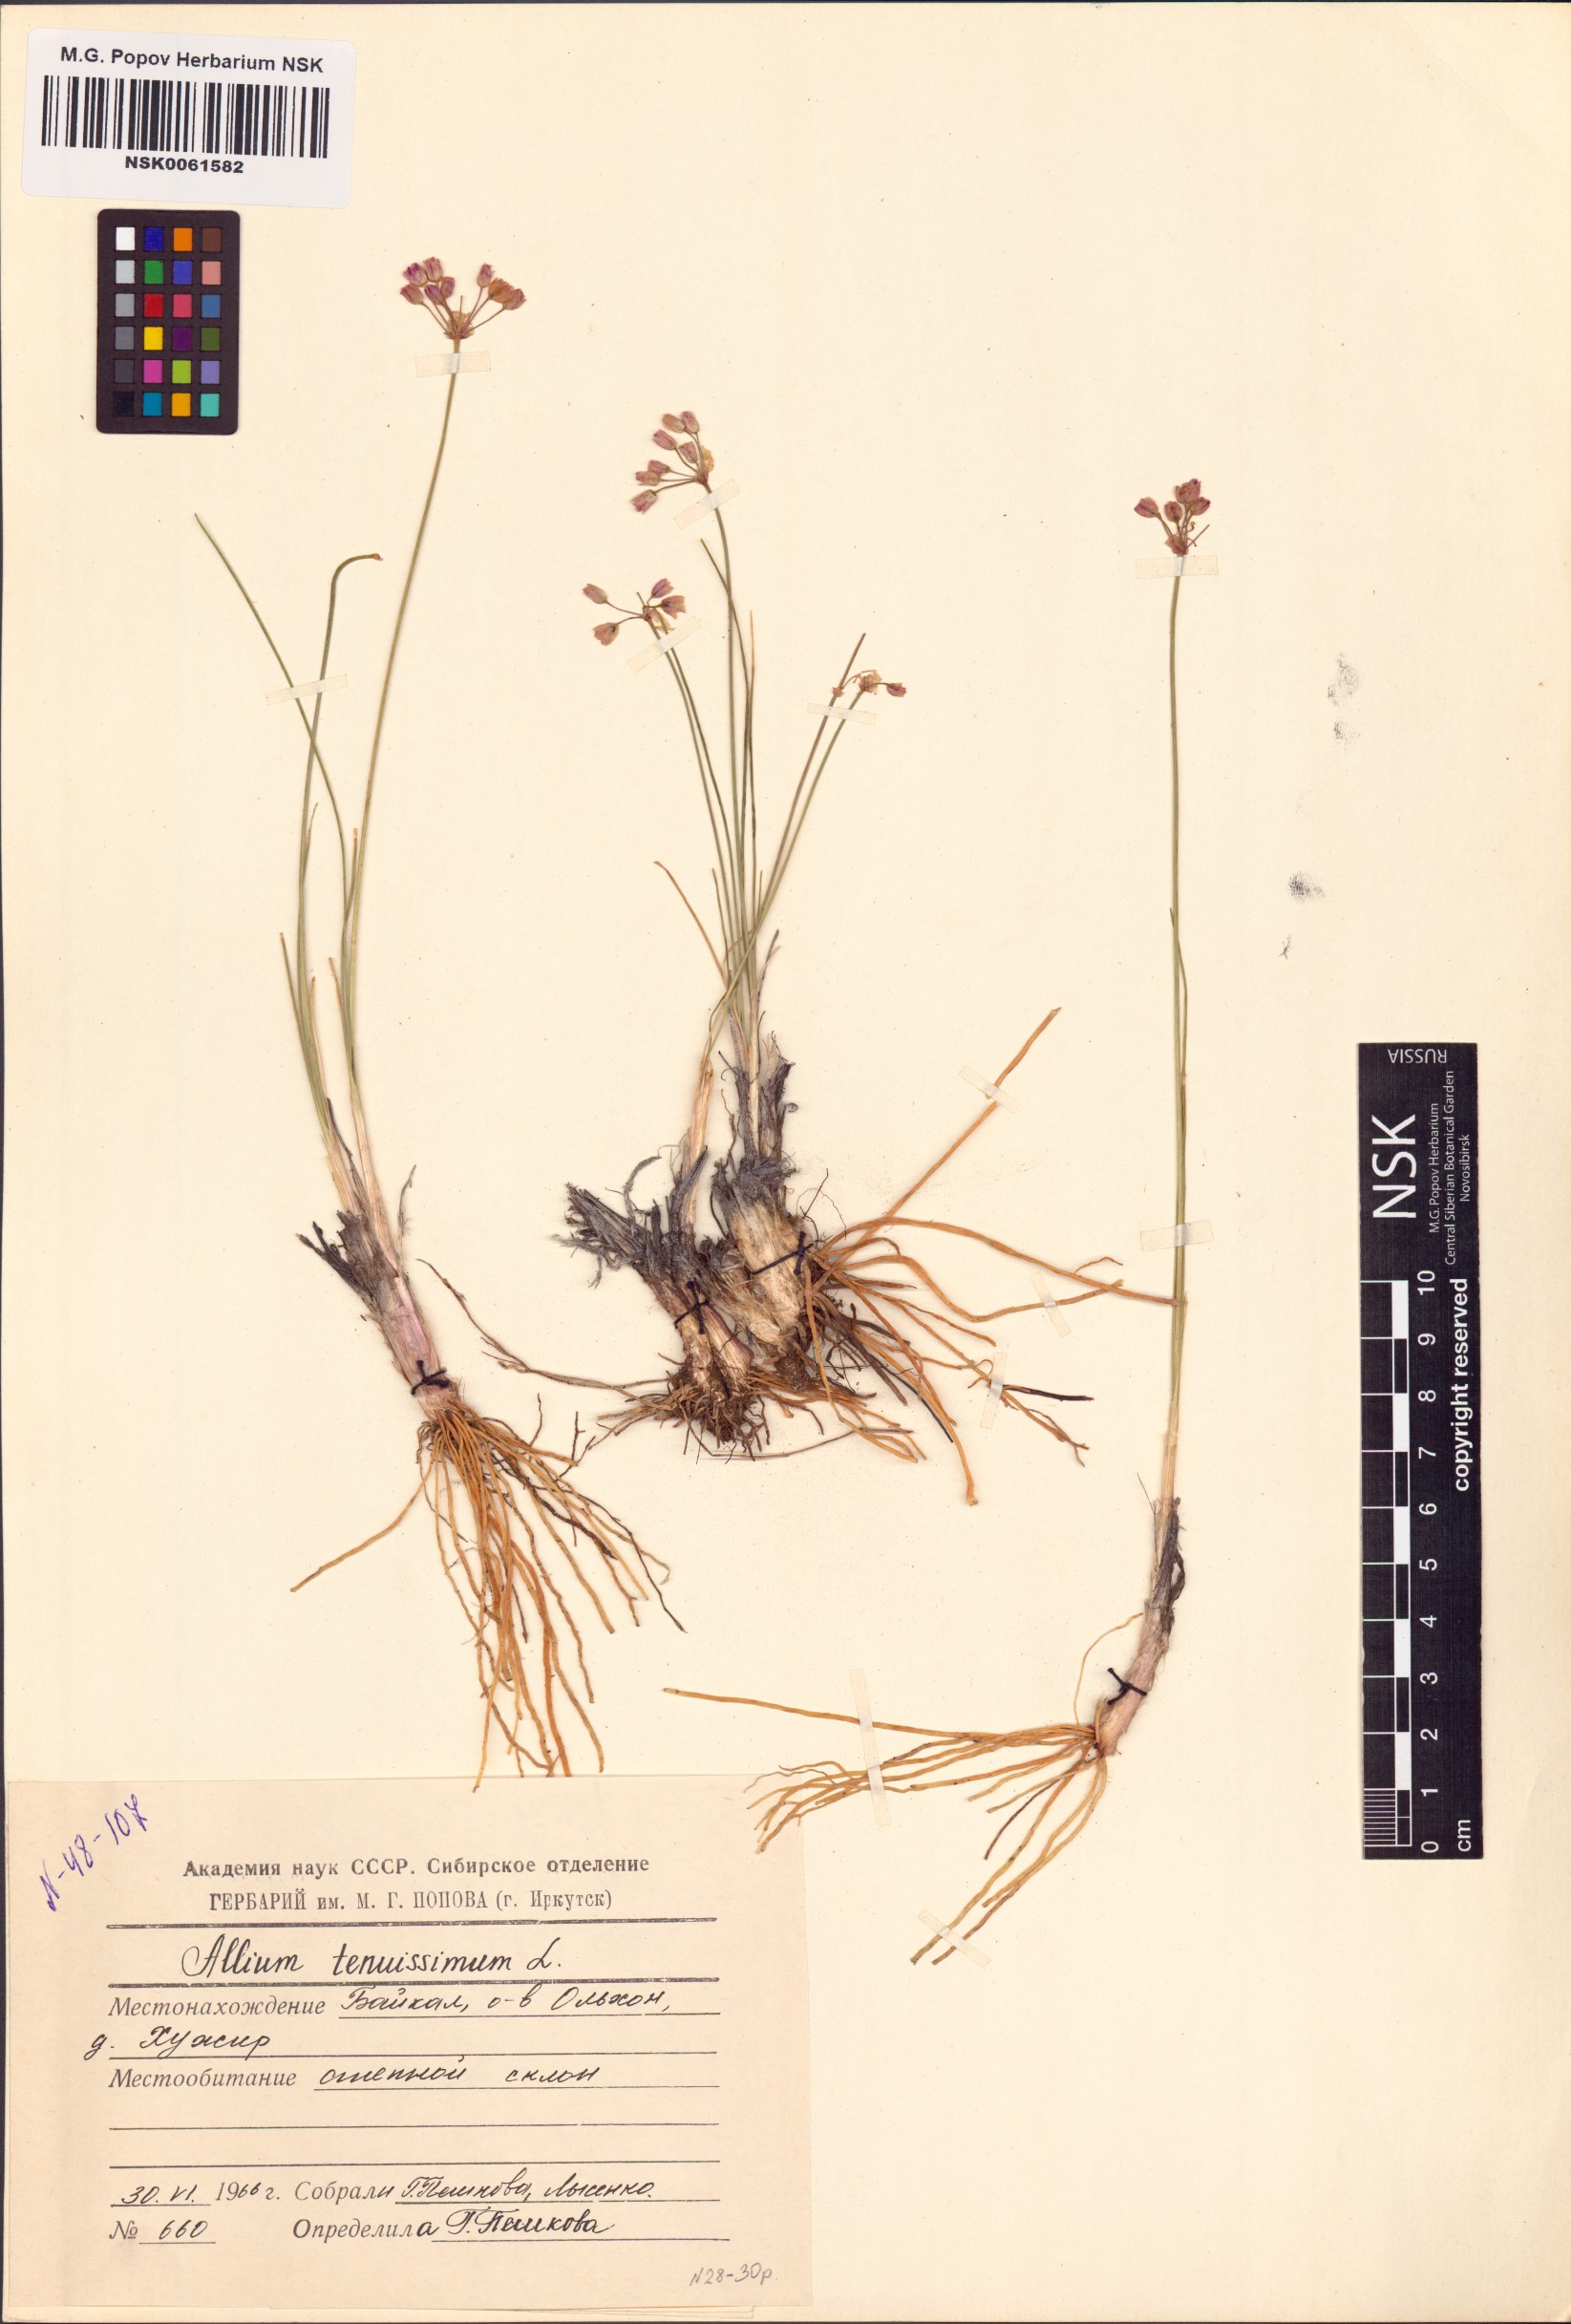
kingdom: Plantae
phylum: Tracheophyta
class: Liliopsida
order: Asparagales
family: Amaryllidaceae
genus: Allium
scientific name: Allium tenuissimum
